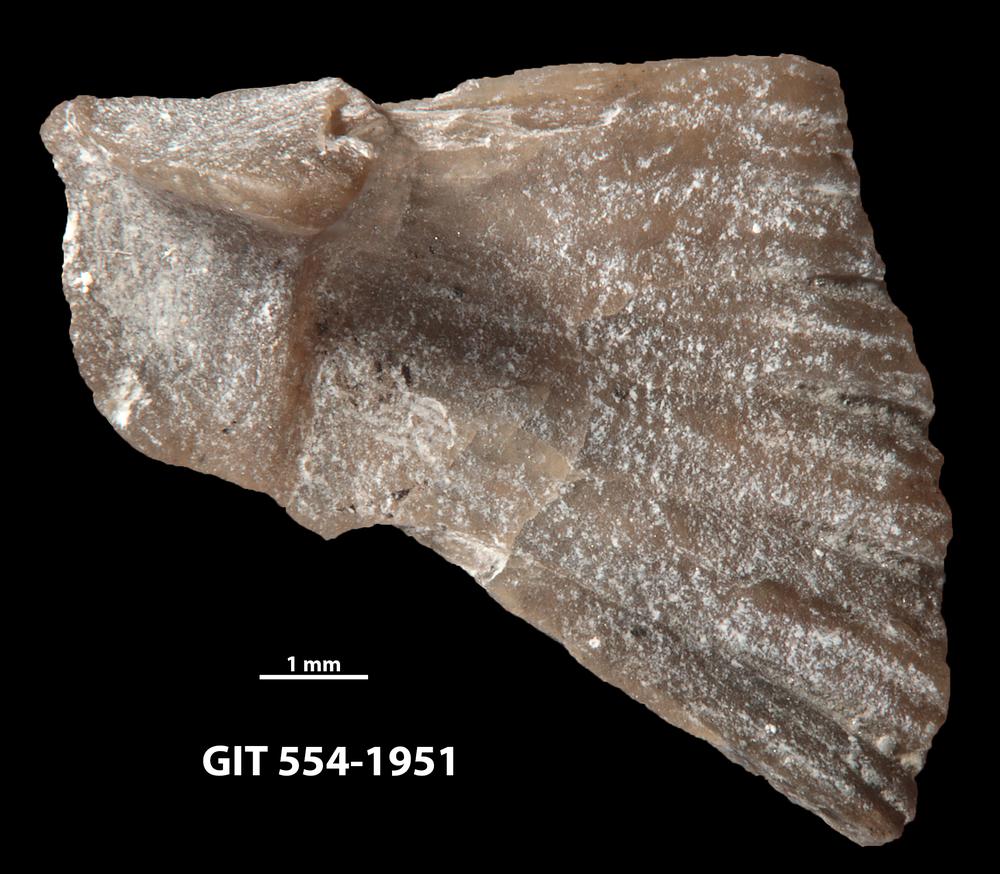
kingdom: Animalia
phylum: Brachiopoda
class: Rhynchonellata
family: Wangyuiidae
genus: Wangyuia
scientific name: Wangyuia
